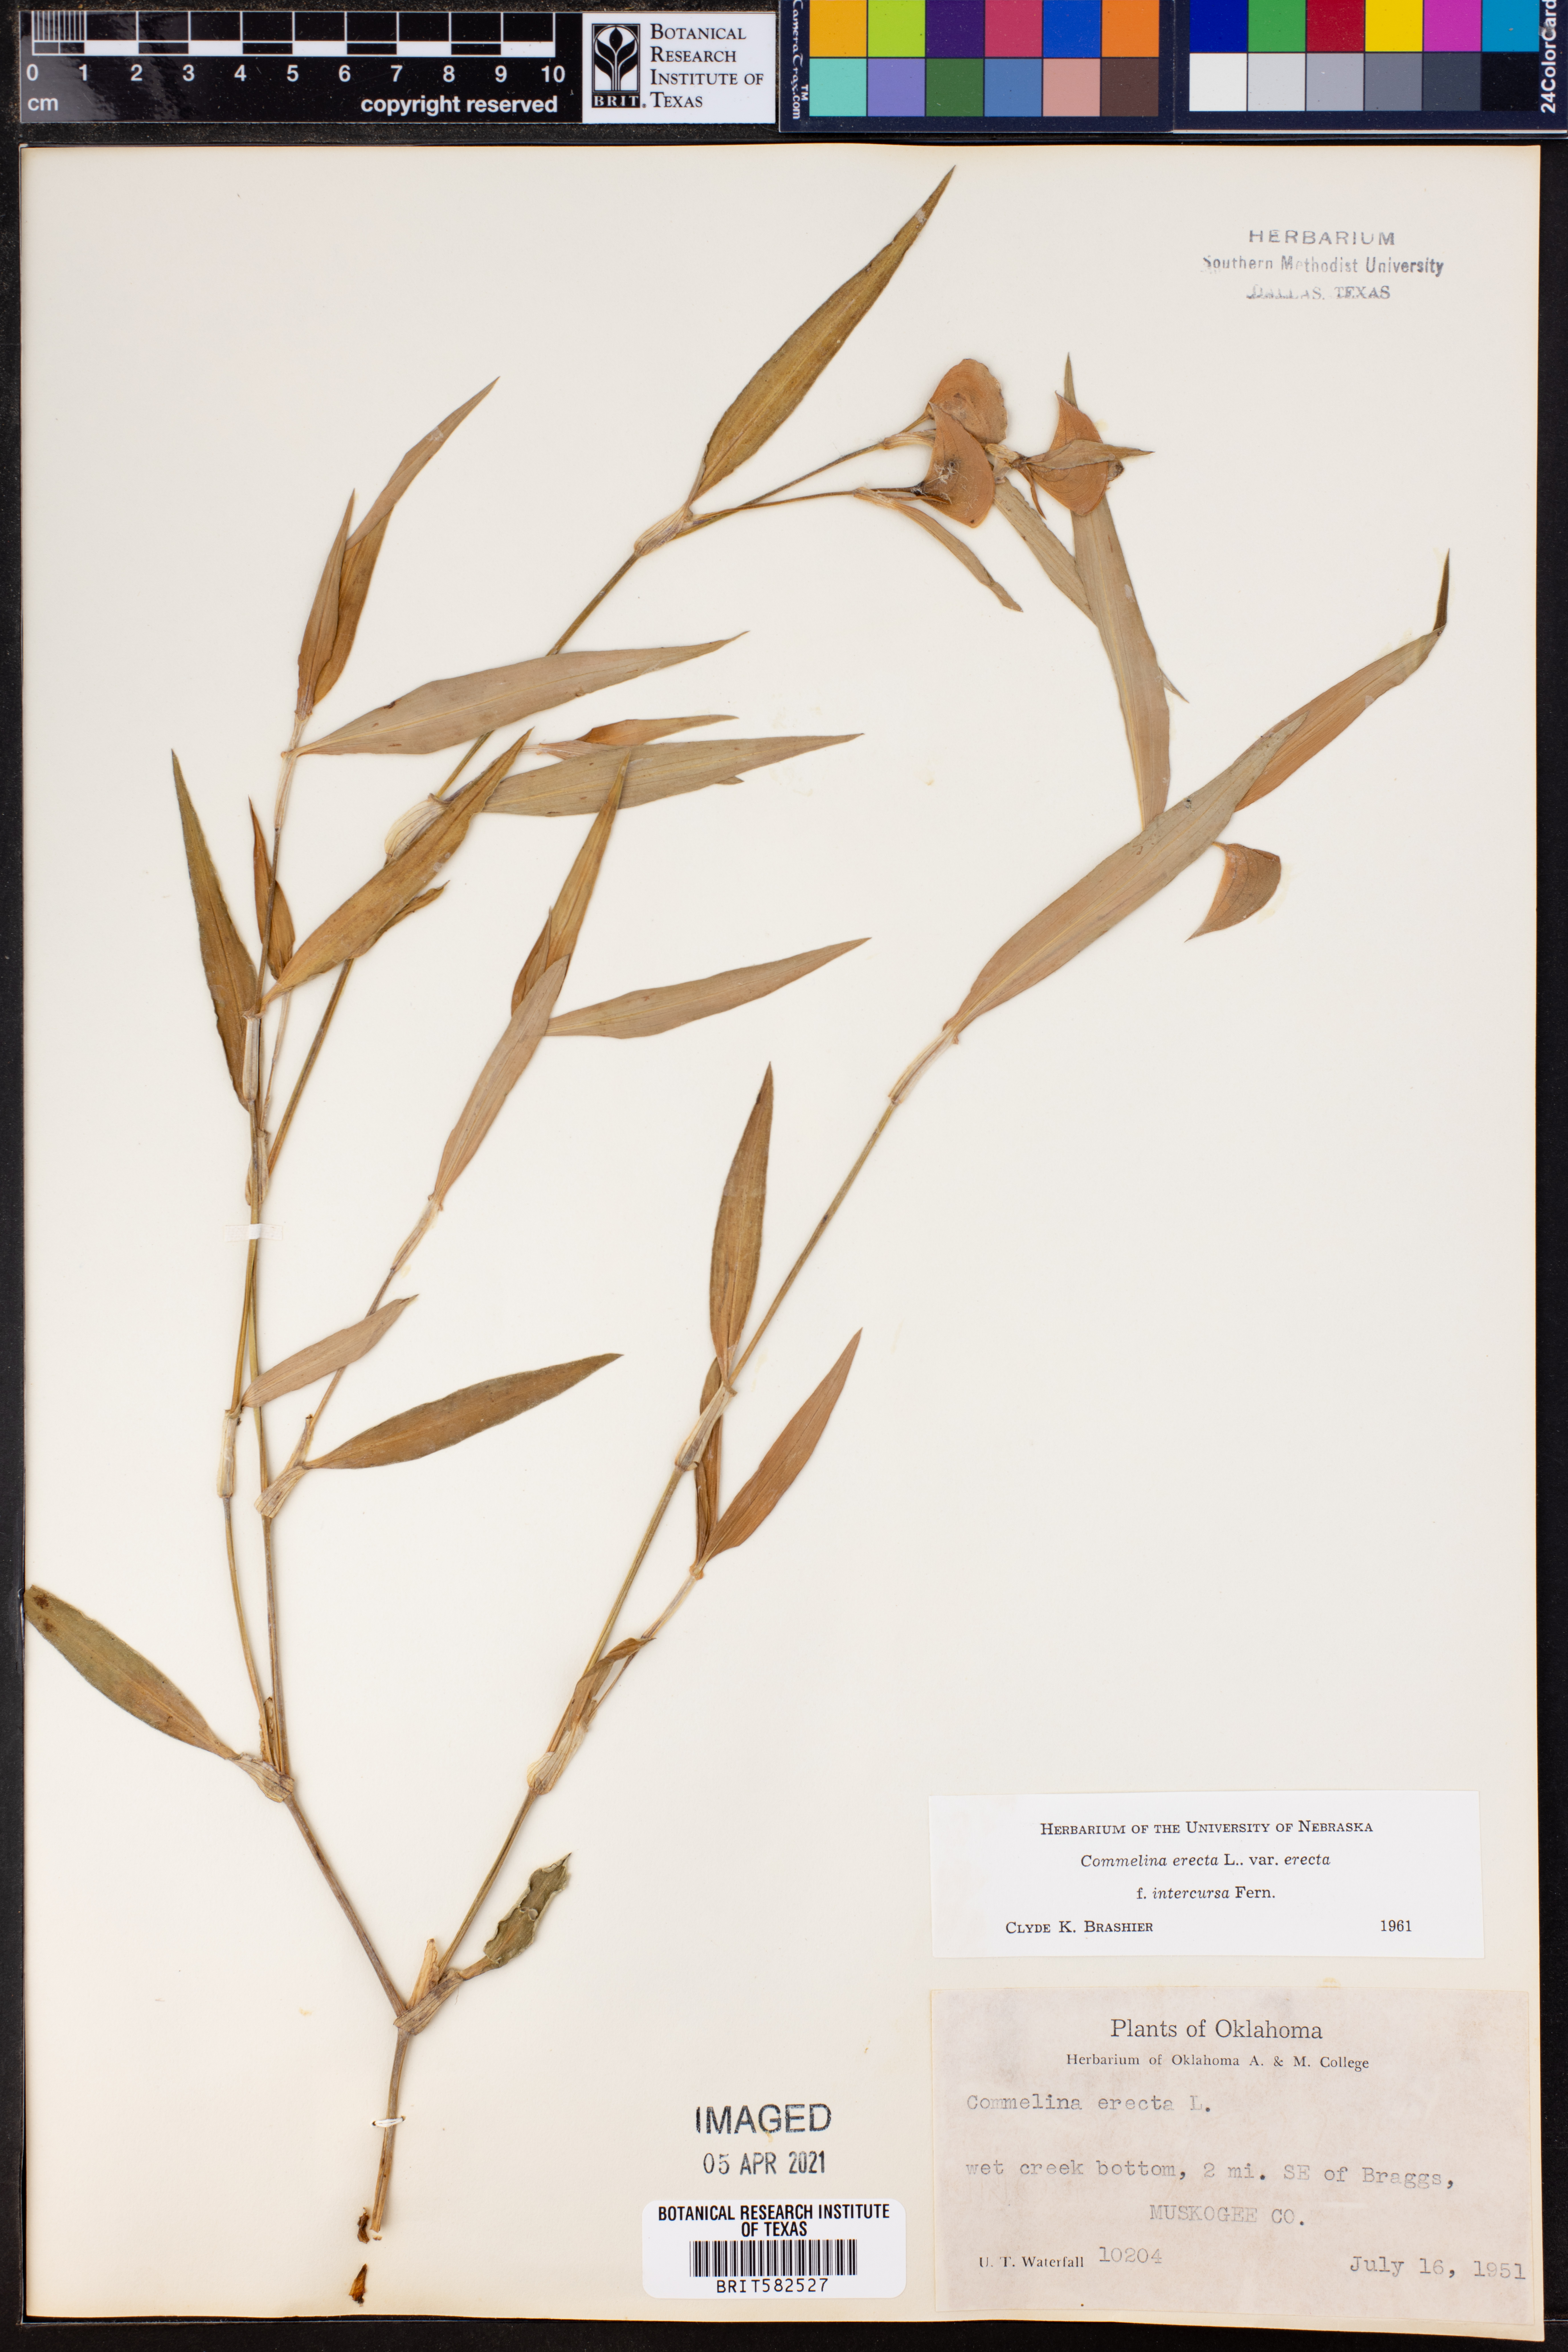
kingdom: Plantae
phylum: Tracheophyta
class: Liliopsida
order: Commelinales
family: Commelinaceae
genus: Commelina
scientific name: Commelina erecta
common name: Blousel blommetjie
